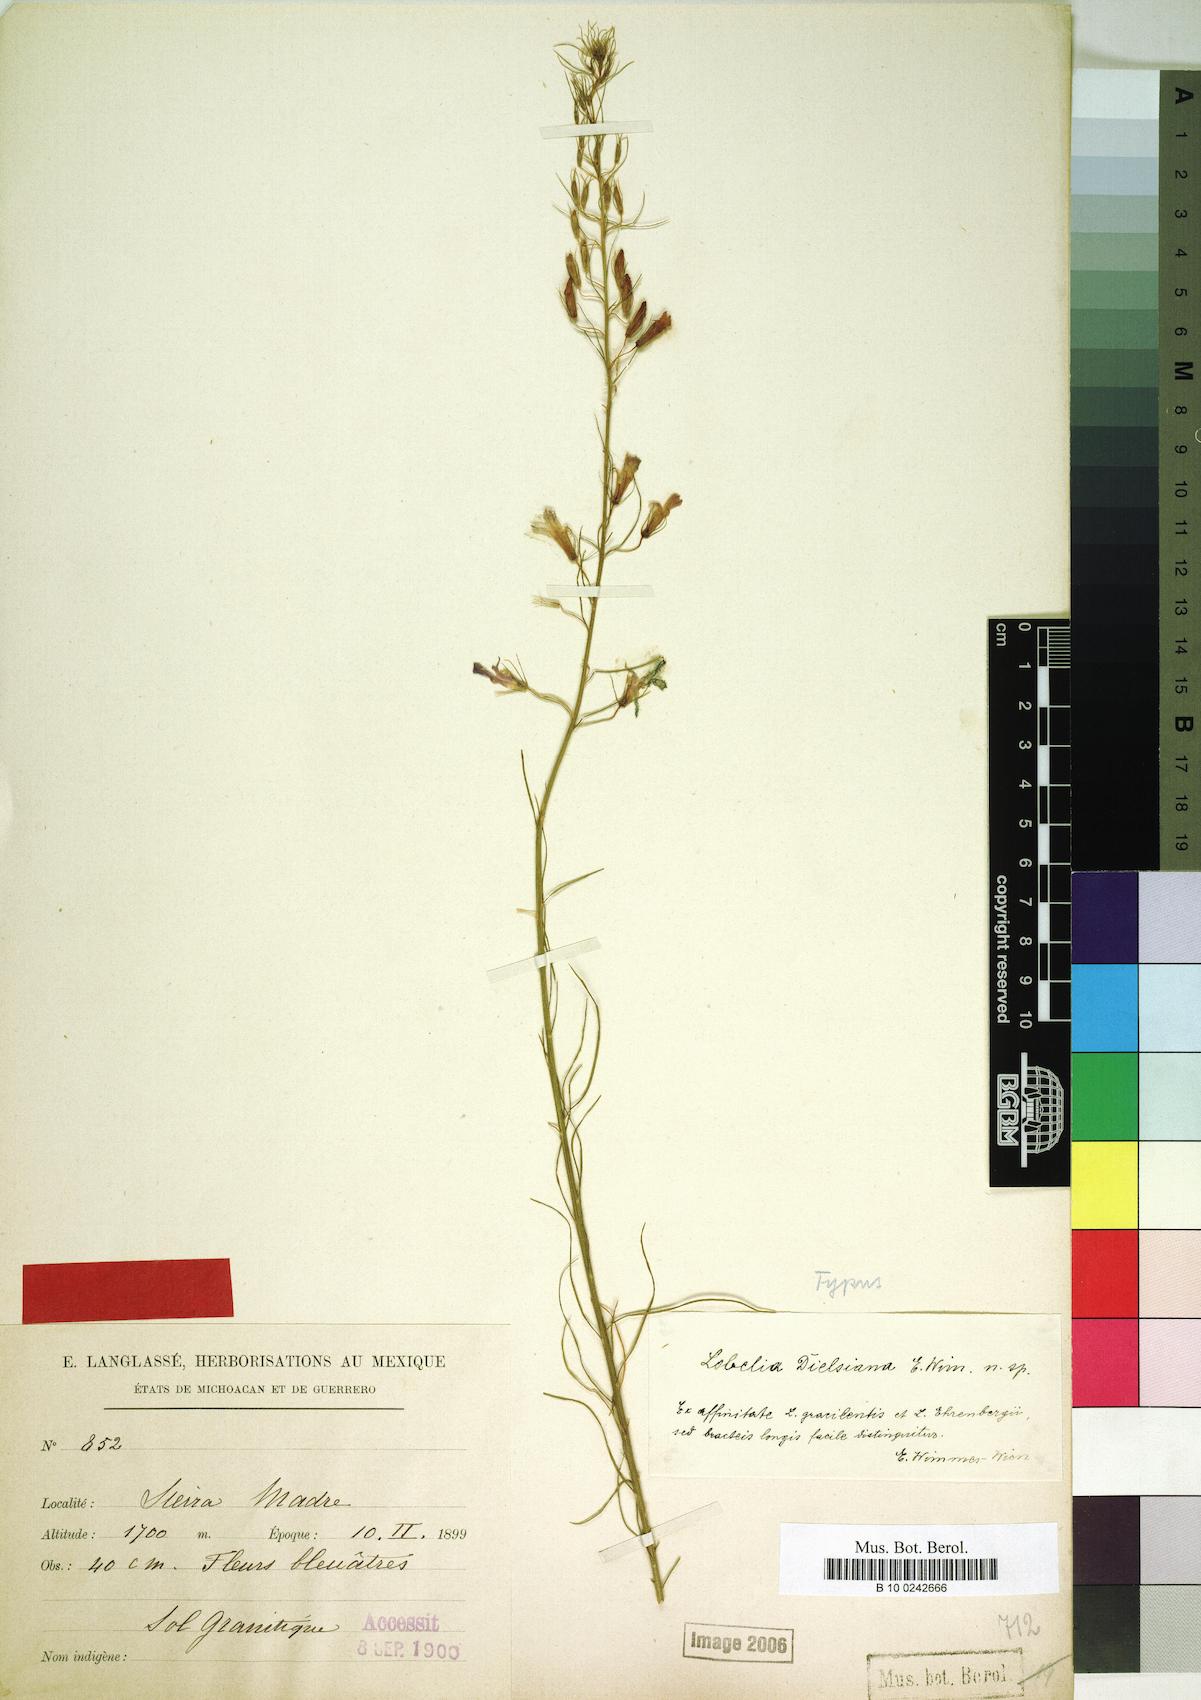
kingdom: Plantae
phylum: Tracheophyta
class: Magnoliopsida
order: Asterales
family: Campanulaceae
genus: Lobelia
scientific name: Lobelia dielsiana
